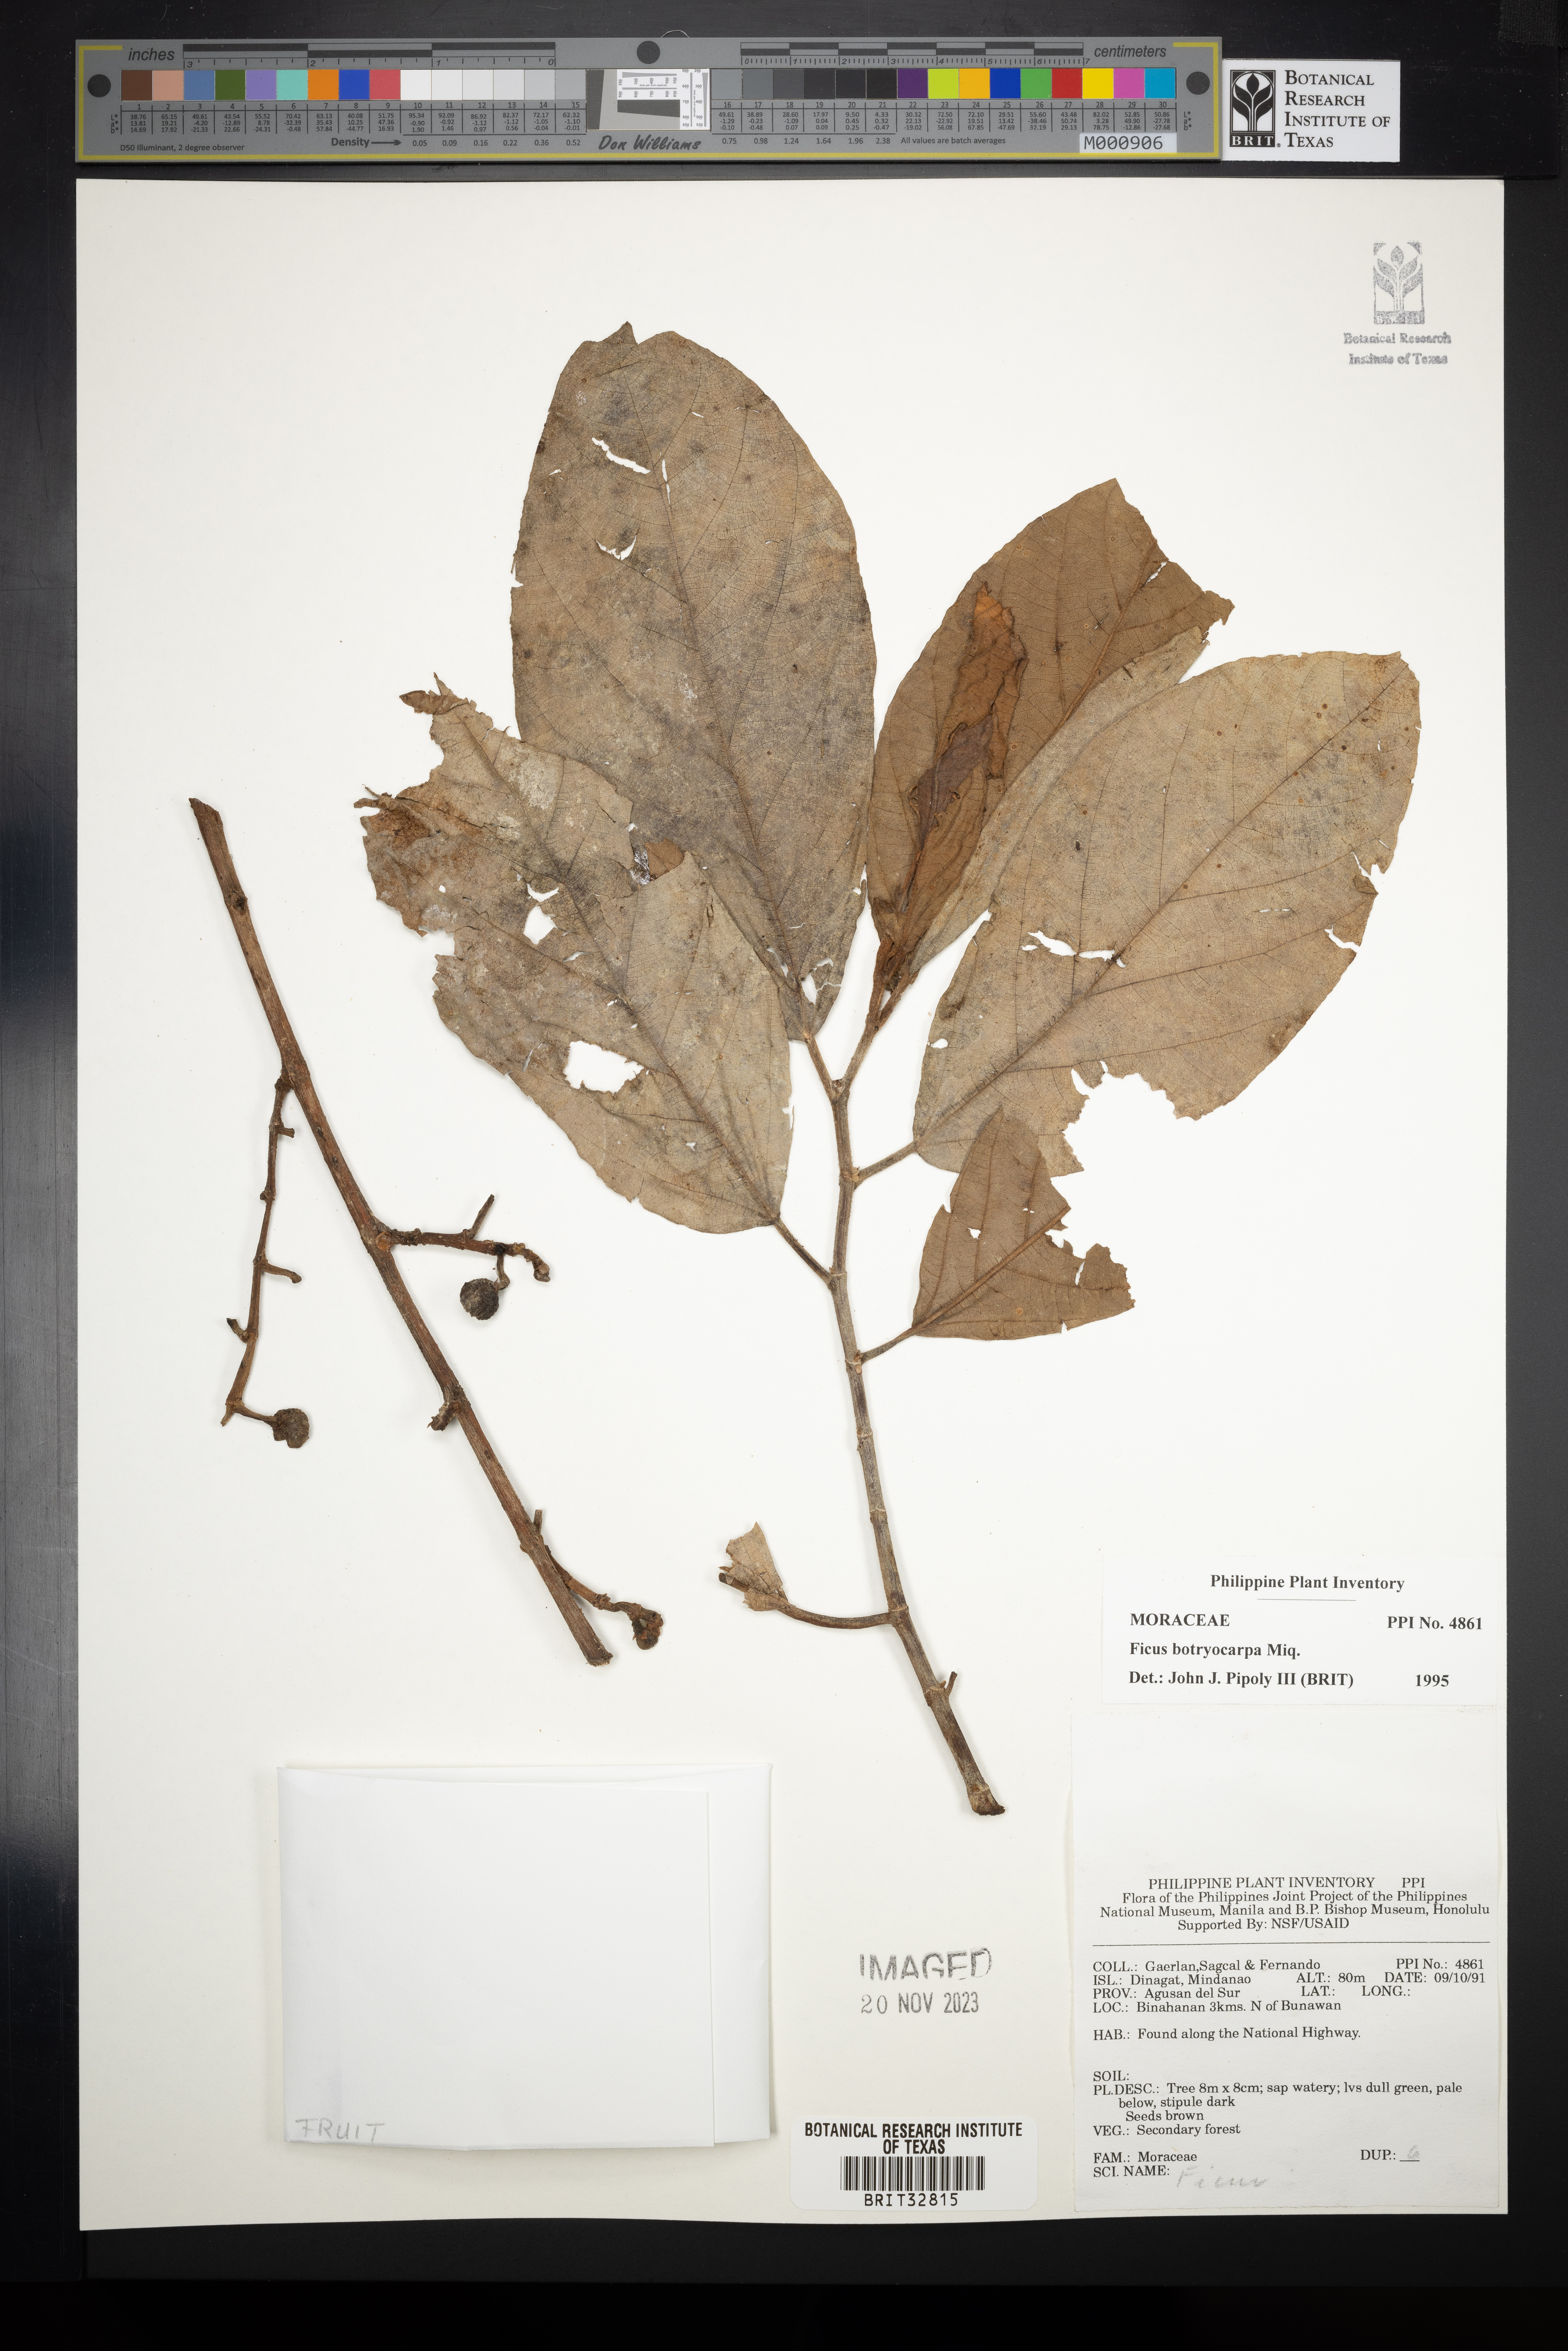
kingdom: Plantae
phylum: Tracheophyta
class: Magnoliopsida
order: Rosales
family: Moraceae
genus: Ficus
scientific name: Ficus botryocarpa
